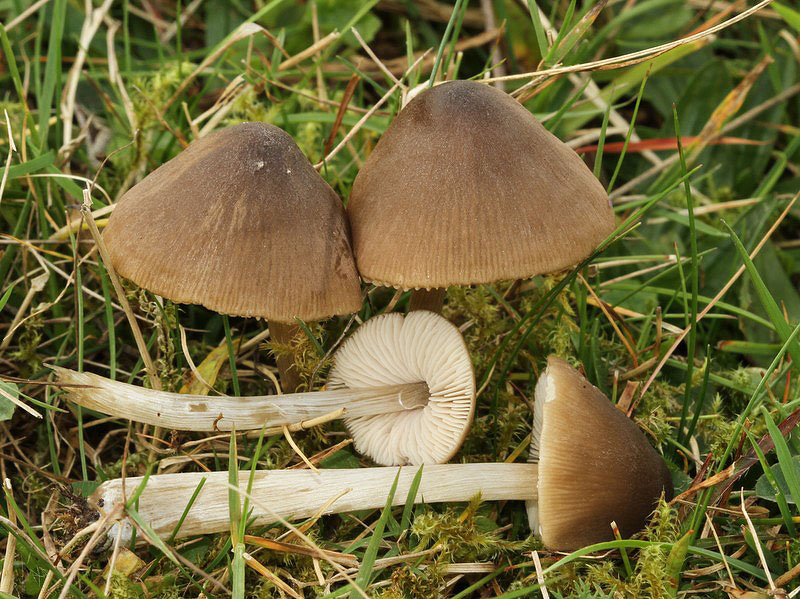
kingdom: Fungi
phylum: Basidiomycota
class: Agaricomycetes
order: Agaricales
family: Entolomataceae
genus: Entoloma
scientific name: Entoloma conferendum
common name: stjernesporet rødblad
